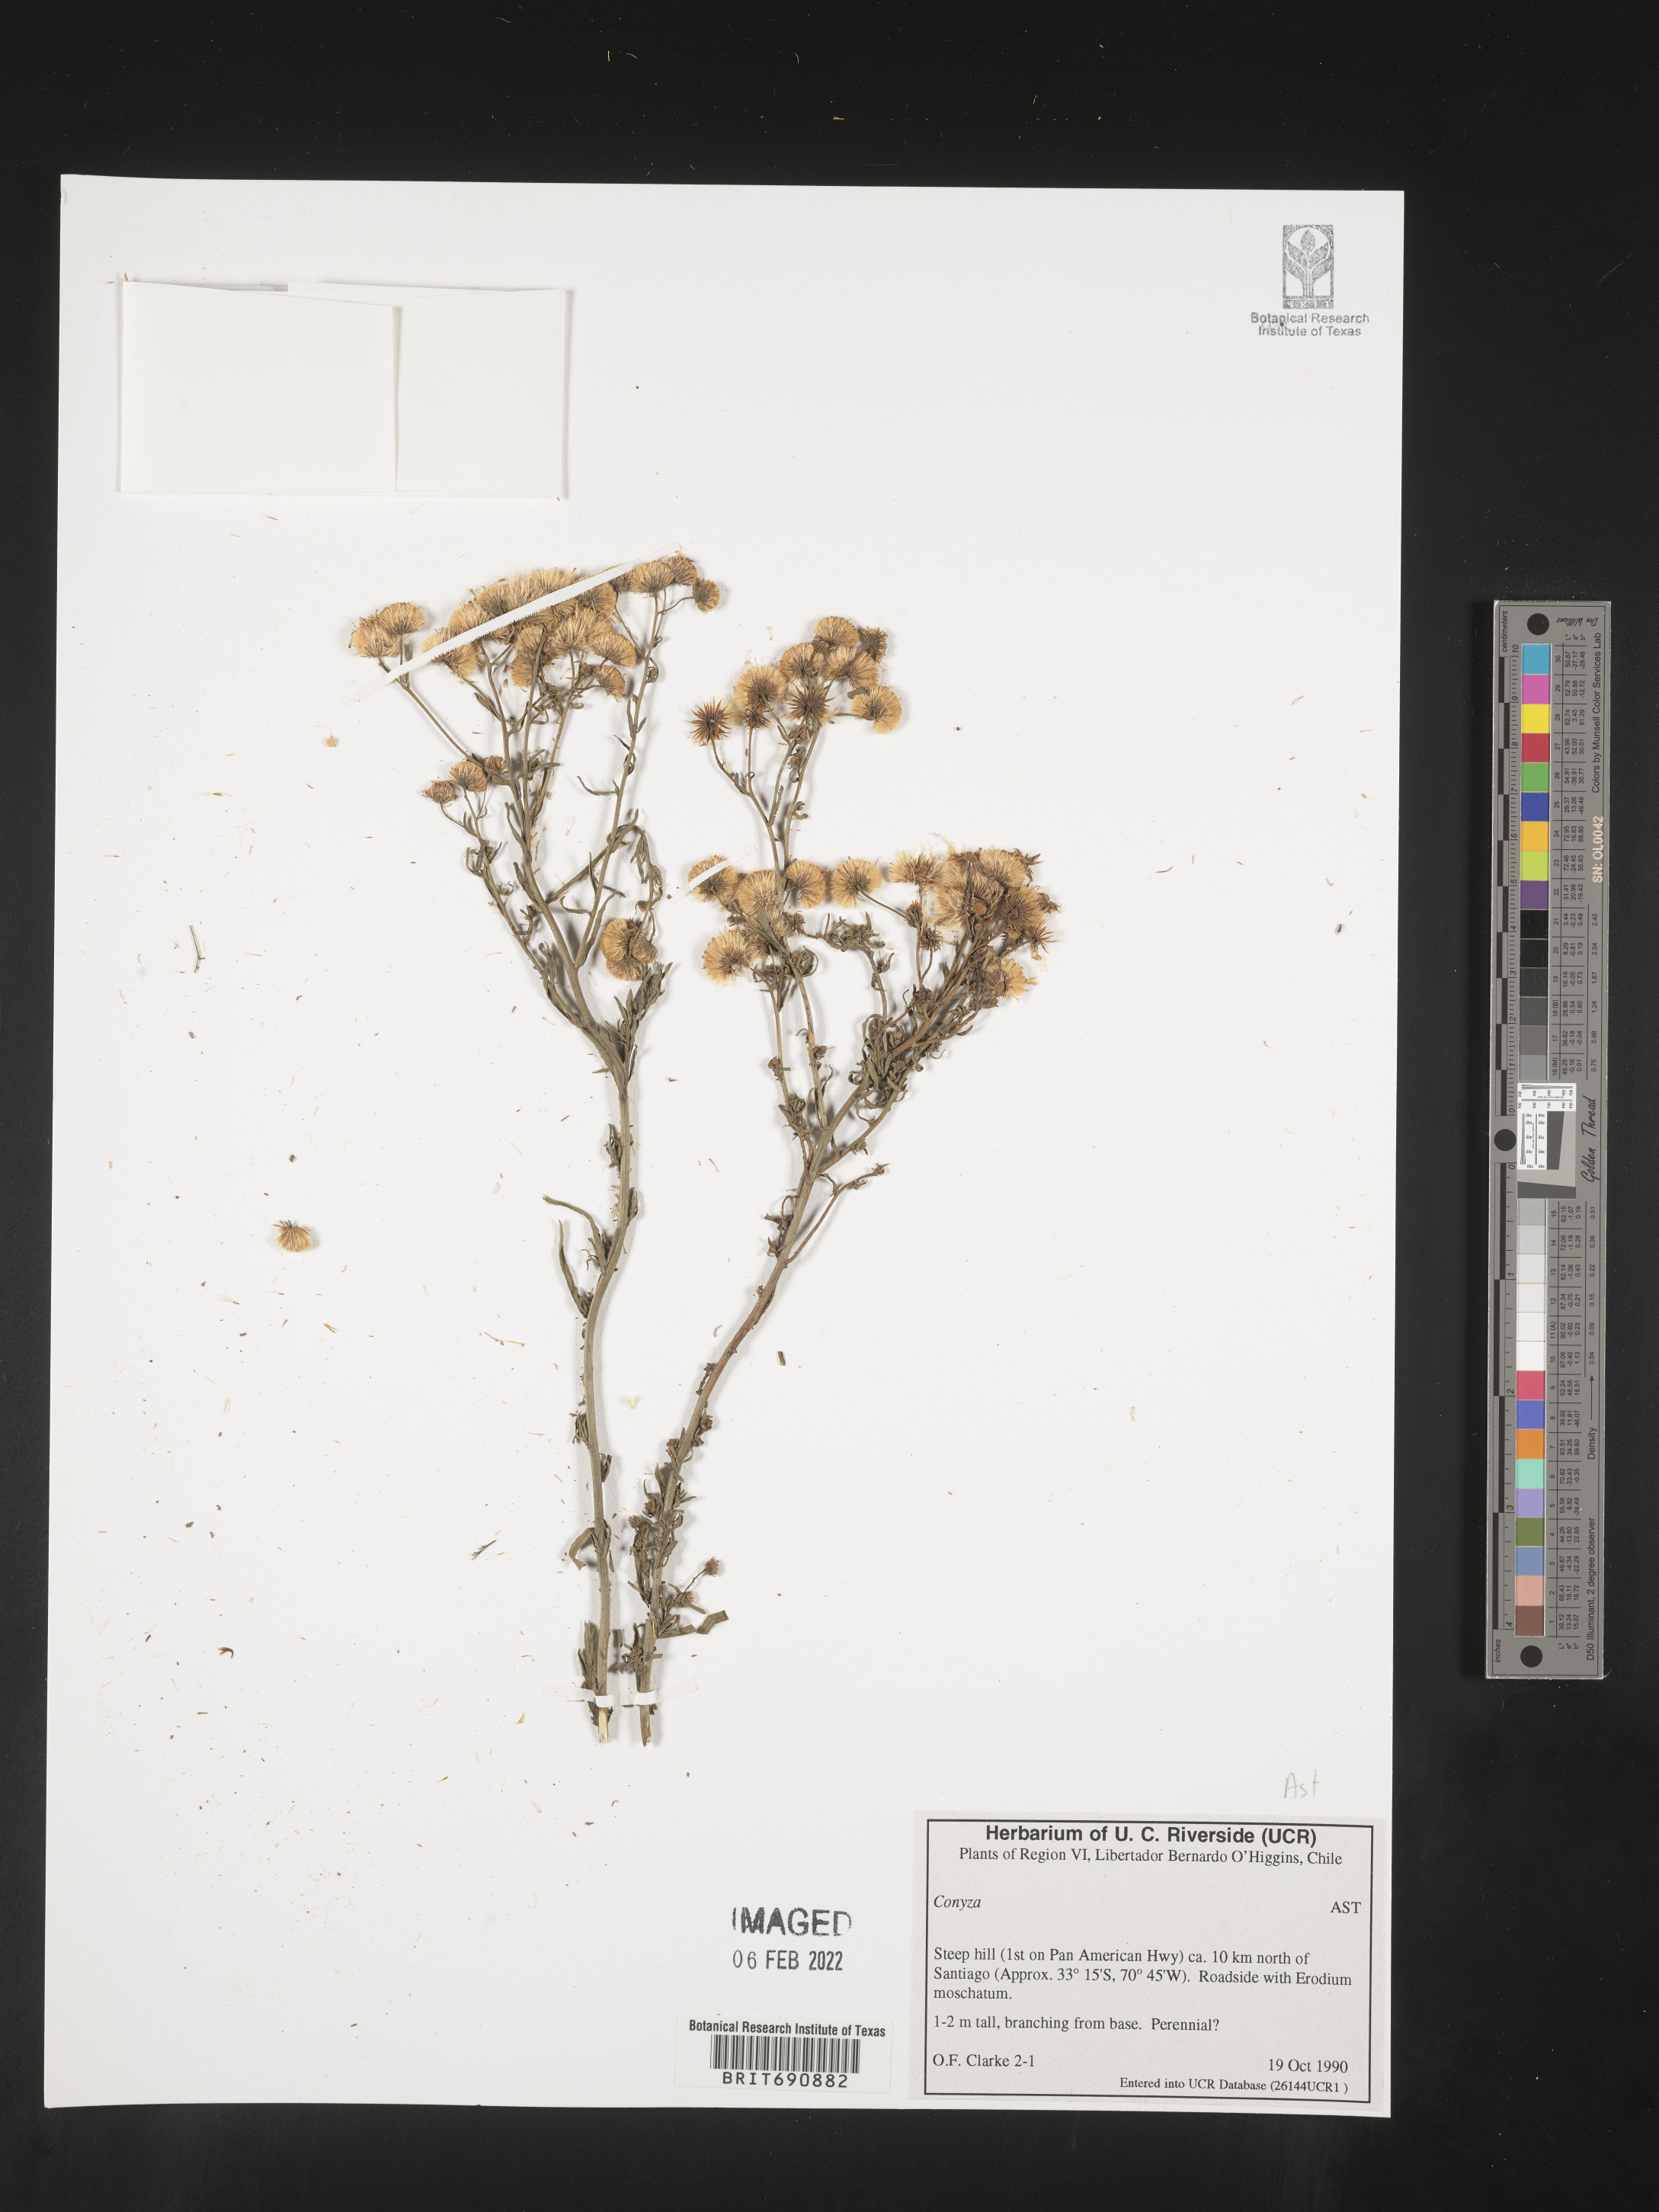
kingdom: Plantae
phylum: Tracheophyta
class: Magnoliopsida
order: Asterales
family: Asteraceae
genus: Conyza
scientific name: Conyza
